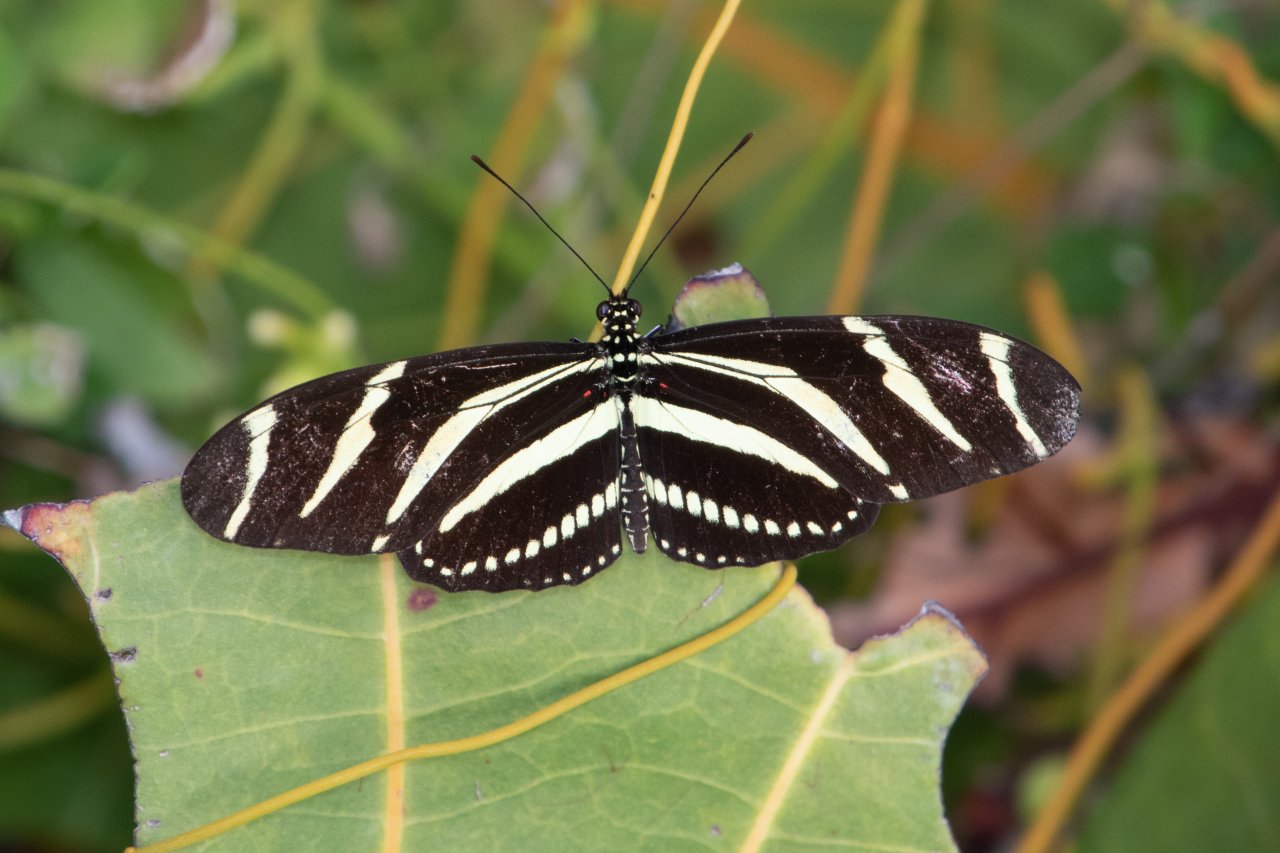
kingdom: Animalia
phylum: Arthropoda
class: Insecta
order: Lepidoptera
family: Nymphalidae
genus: Heliconius
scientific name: Heliconius charithonia
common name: Zebra Longwing
